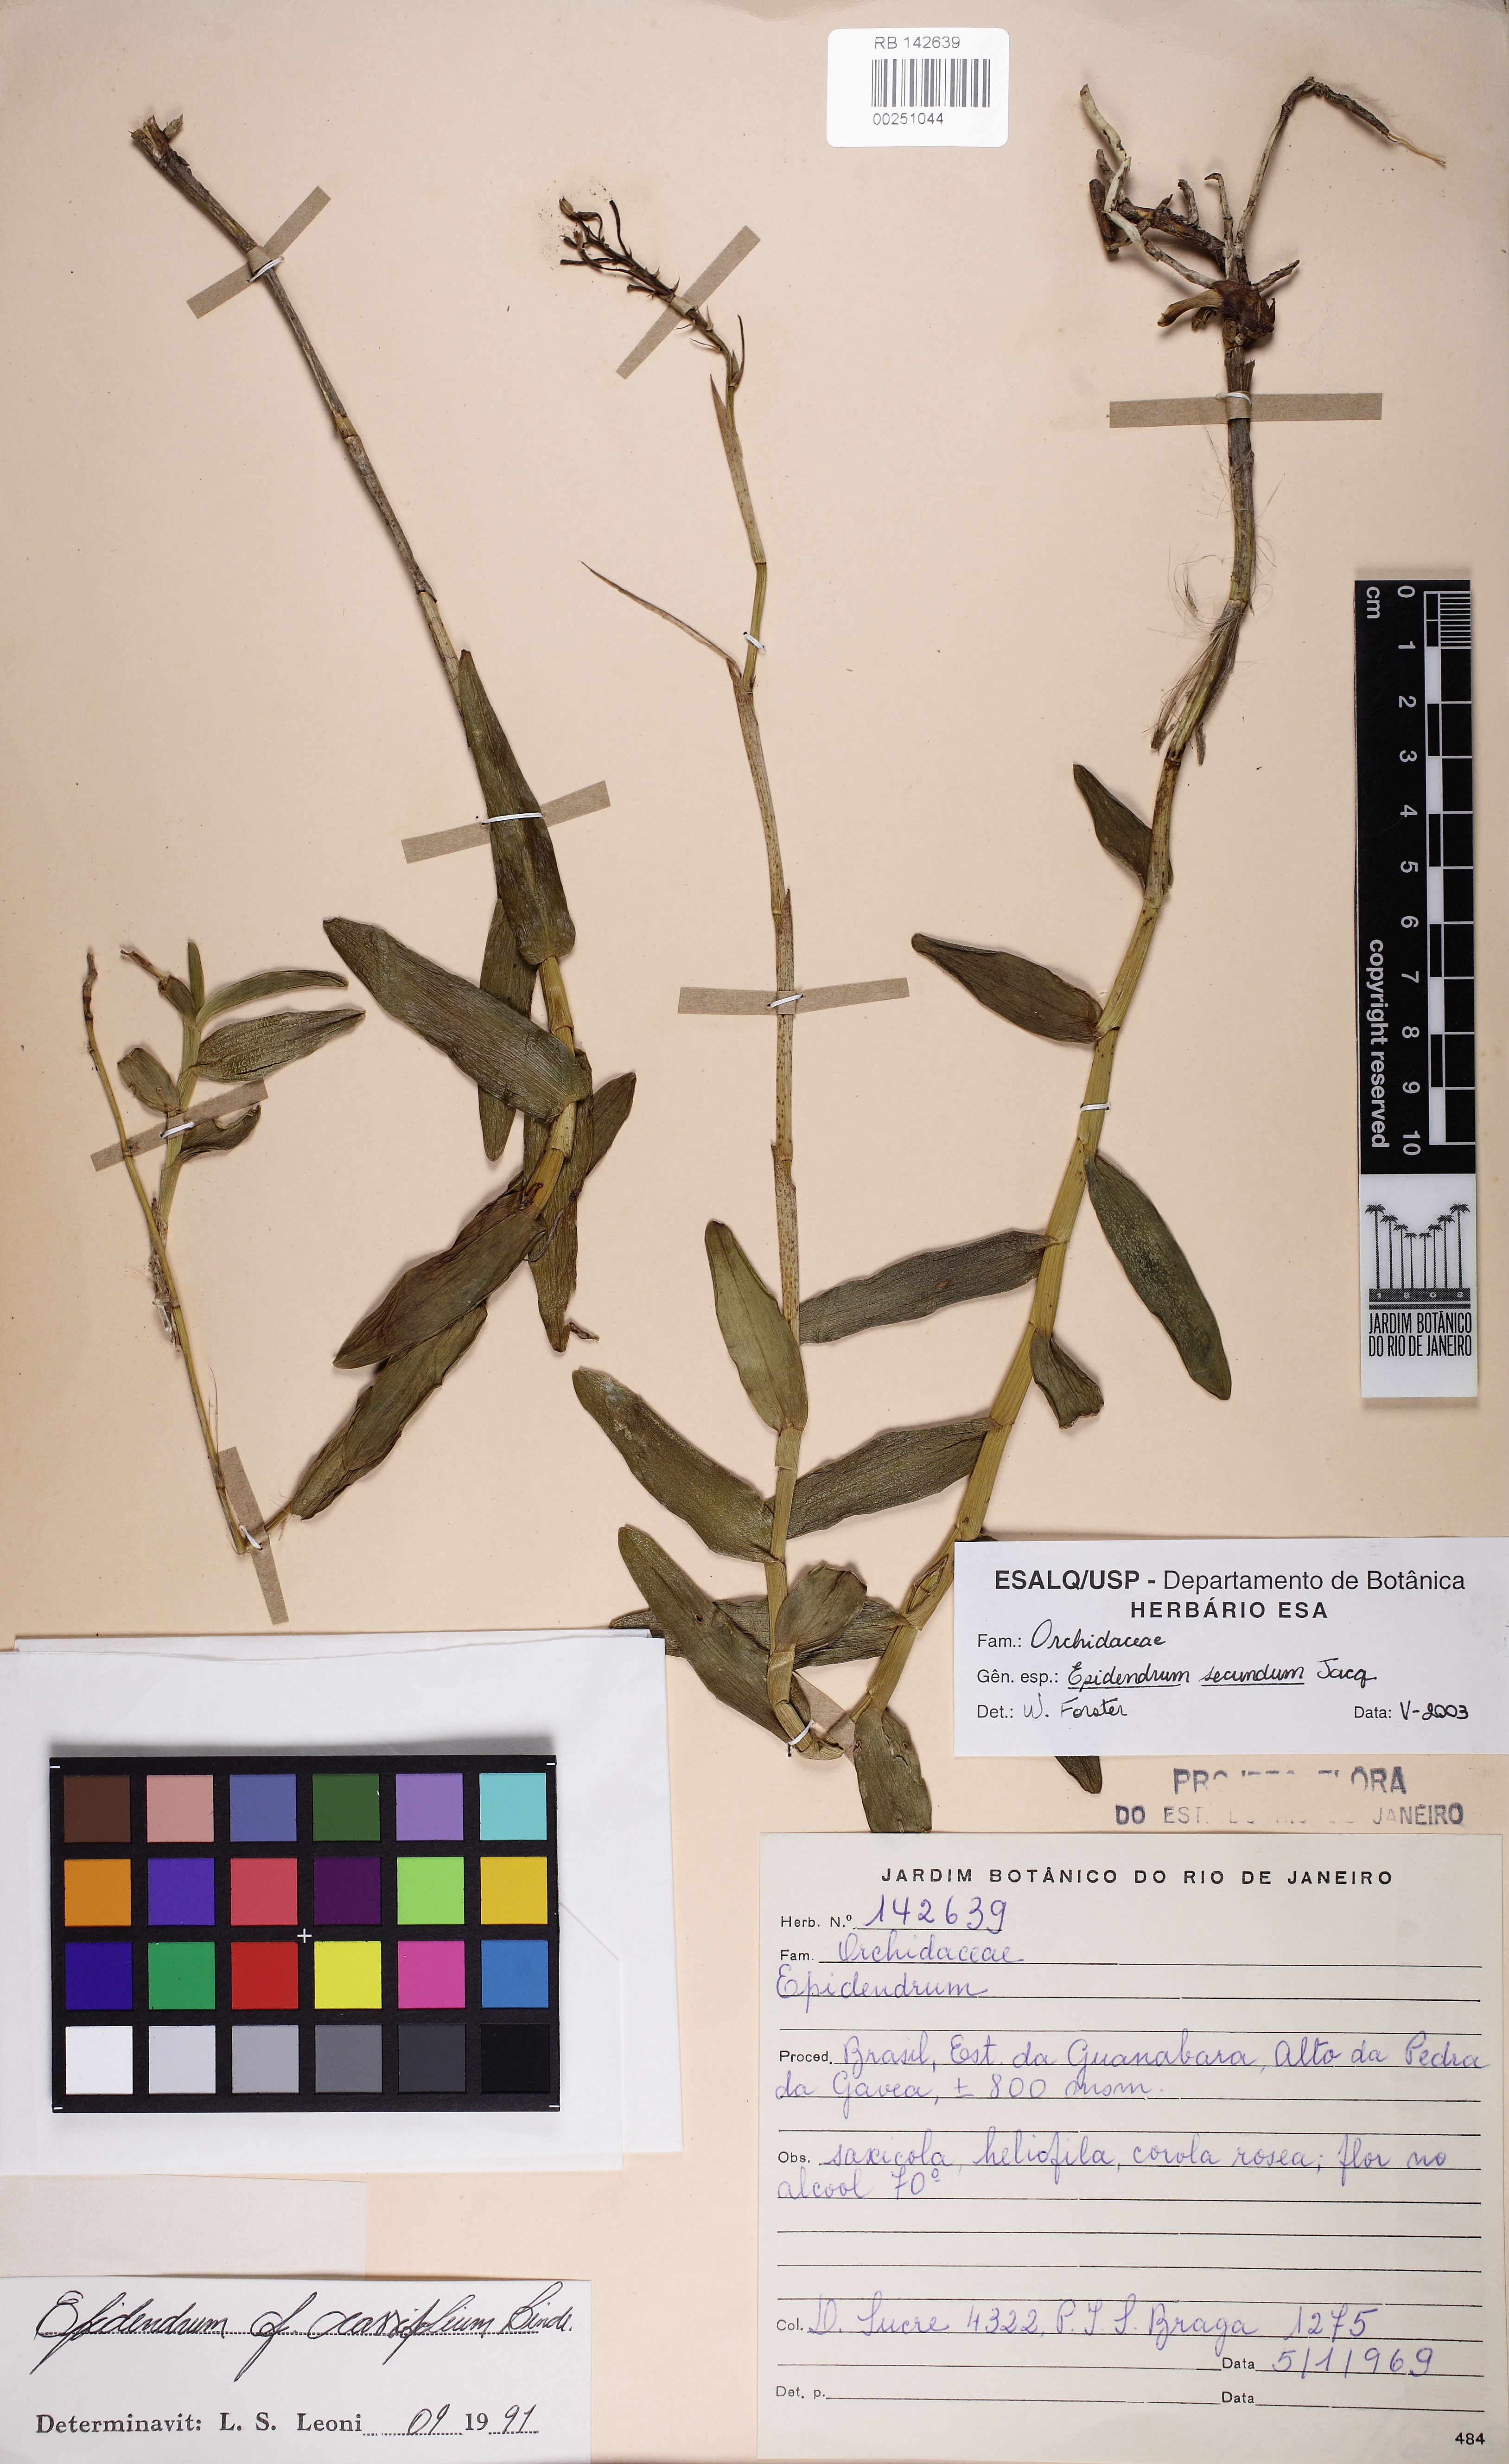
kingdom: Plantae
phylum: Tracheophyta
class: Liliopsida
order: Asparagales
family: Orchidaceae
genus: Epidendrum
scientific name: Epidendrum secundum
